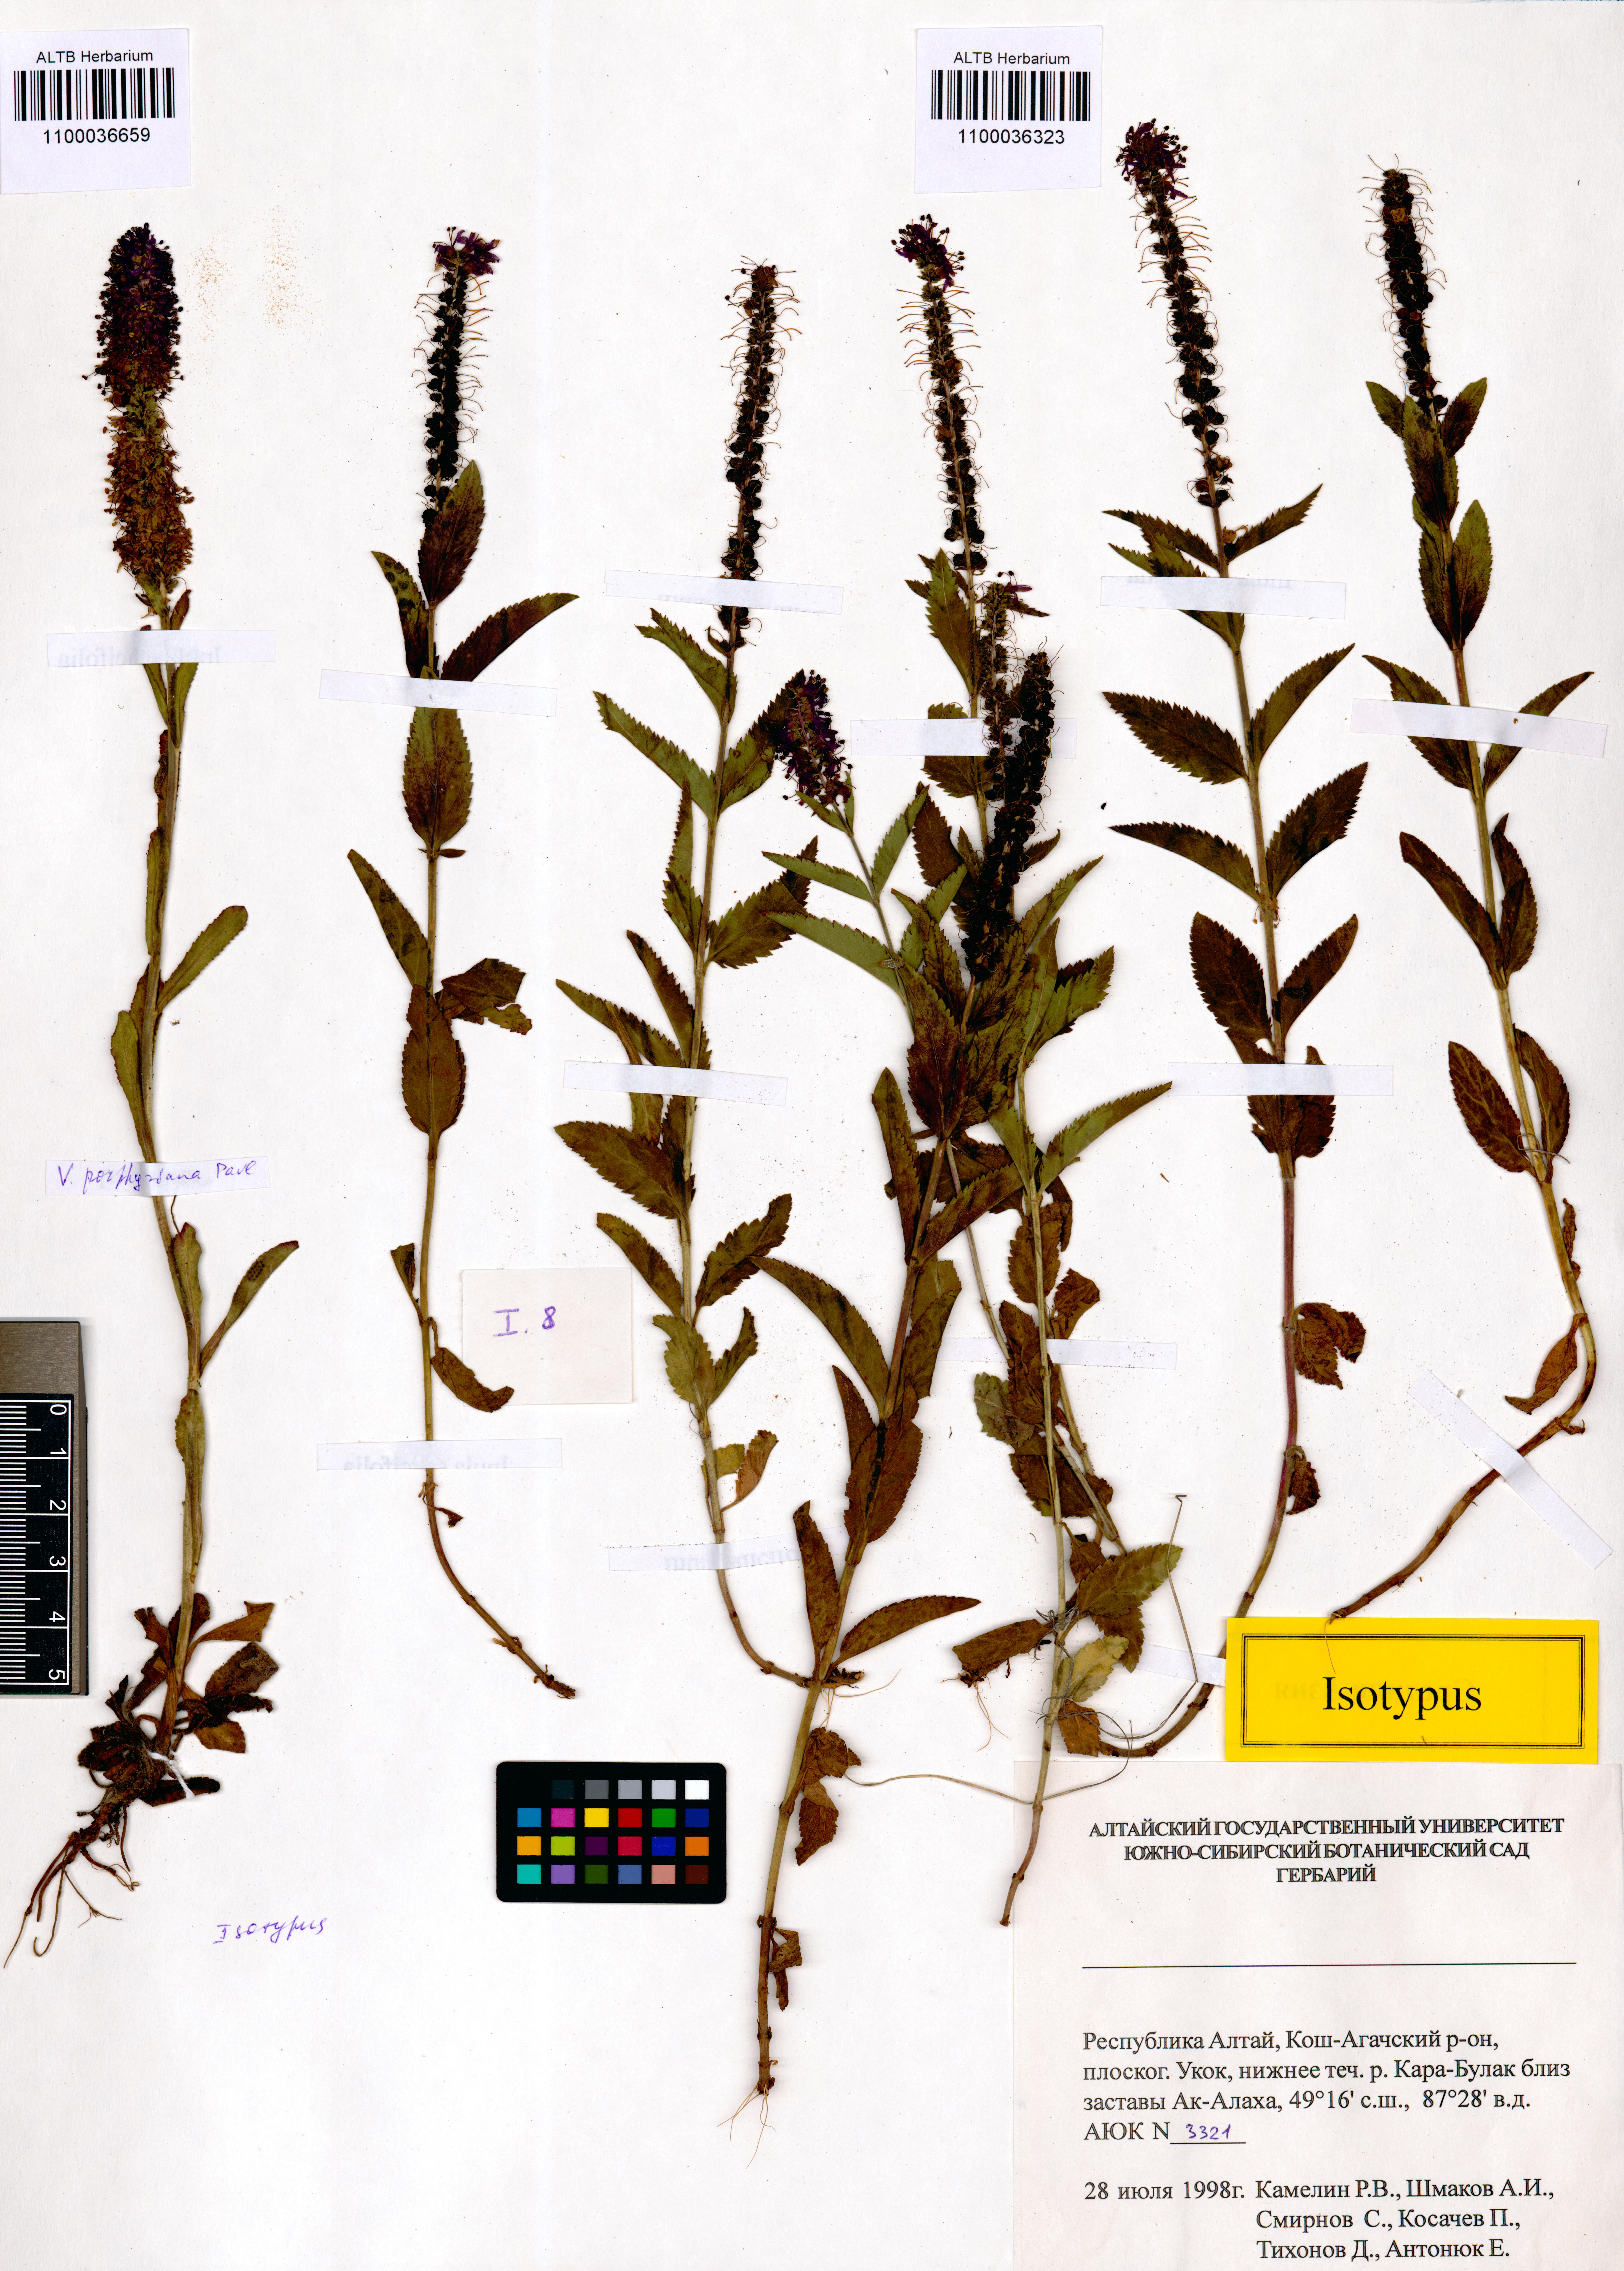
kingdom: Plantae
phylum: Tracheophyta
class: Magnoliopsida
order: Lamiales
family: Plantaginaceae
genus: Veronica
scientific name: Veronica porphyriana
